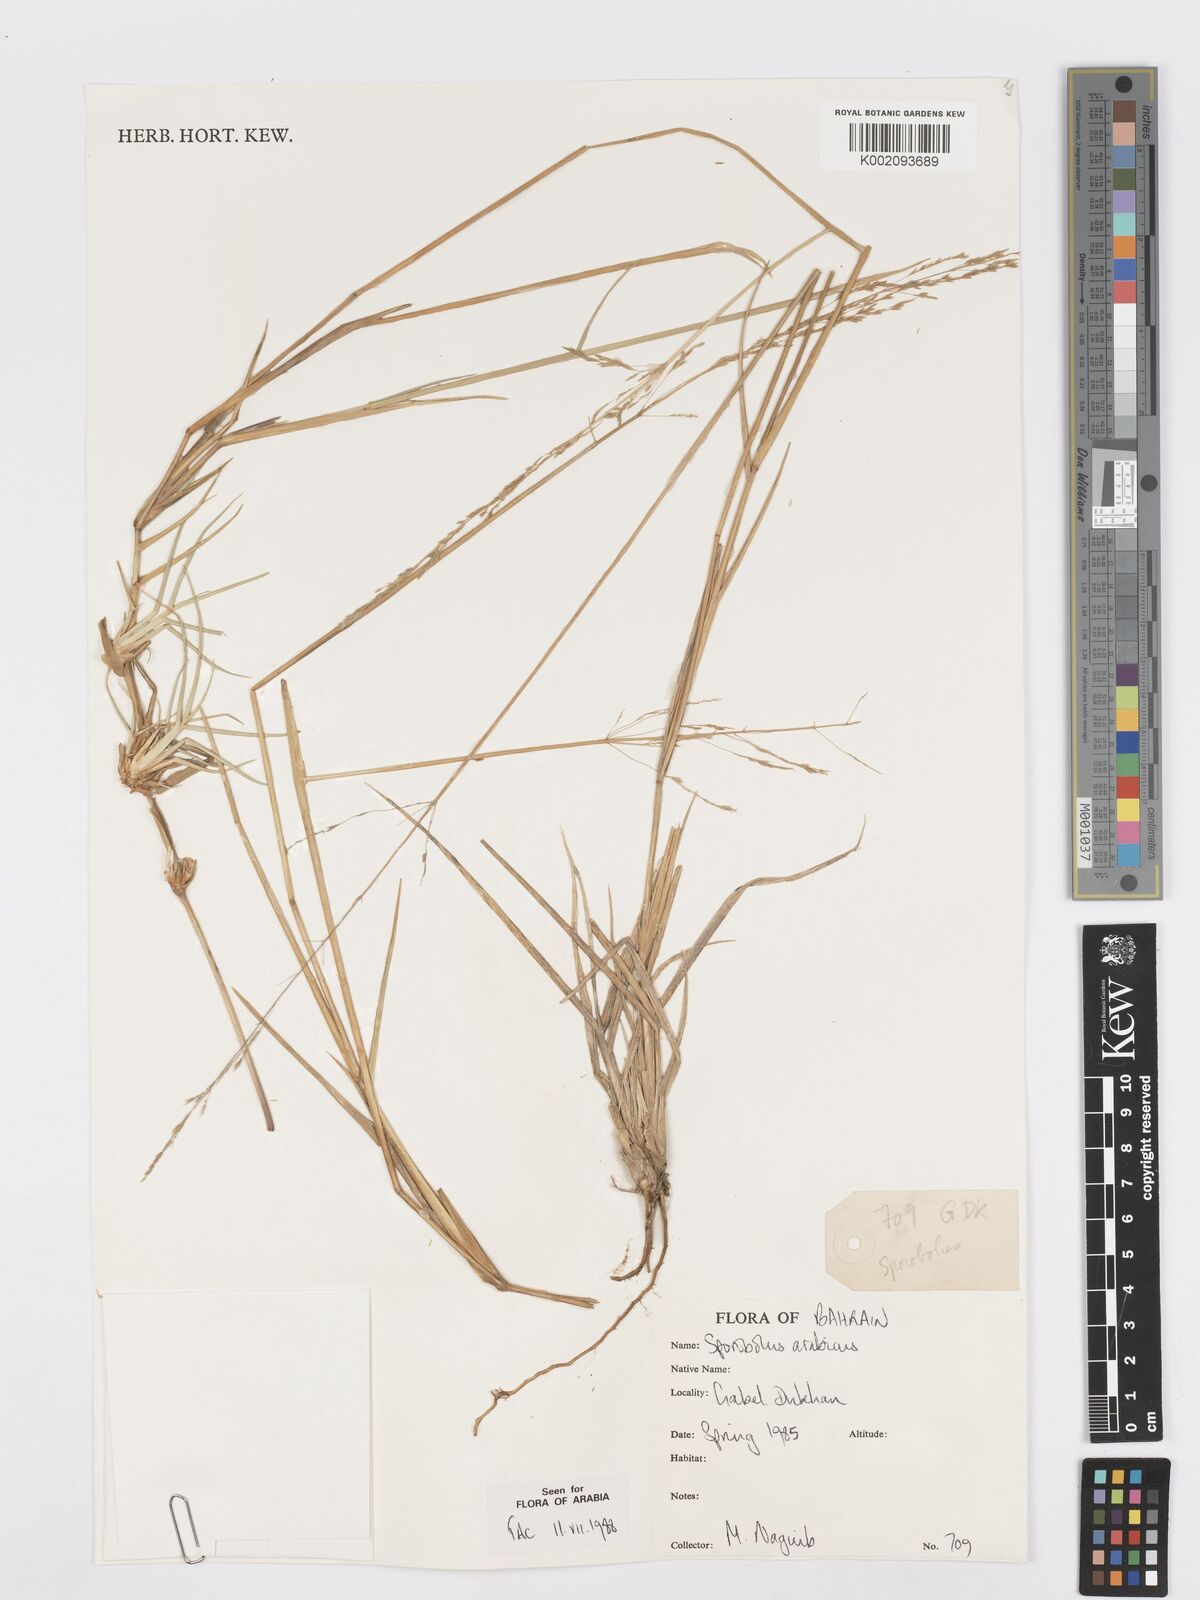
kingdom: Plantae
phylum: Tracheophyta
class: Liliopsida
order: Poales
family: Poaceae
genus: Sporobolus
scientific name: Sporobolus ioclados
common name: Pan dropseed
